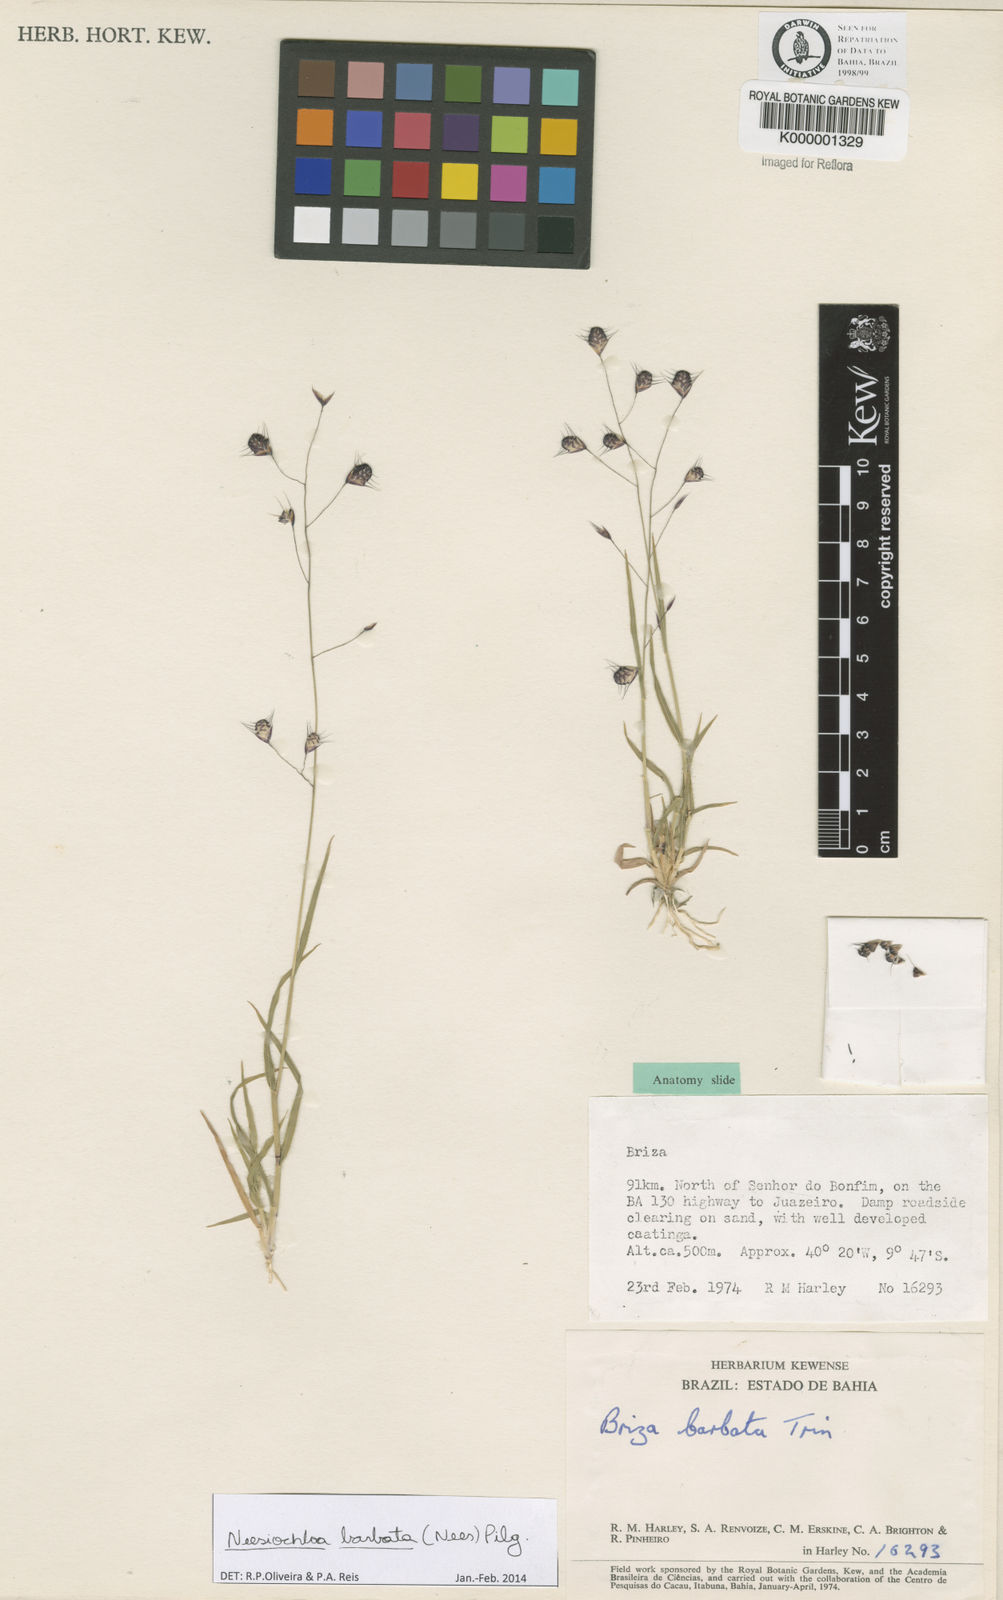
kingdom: Plantae
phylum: Tracheophyta
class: Liliopsida
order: Poales
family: Poaceae
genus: Neesiochloa
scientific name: Neesiochloa barbata
